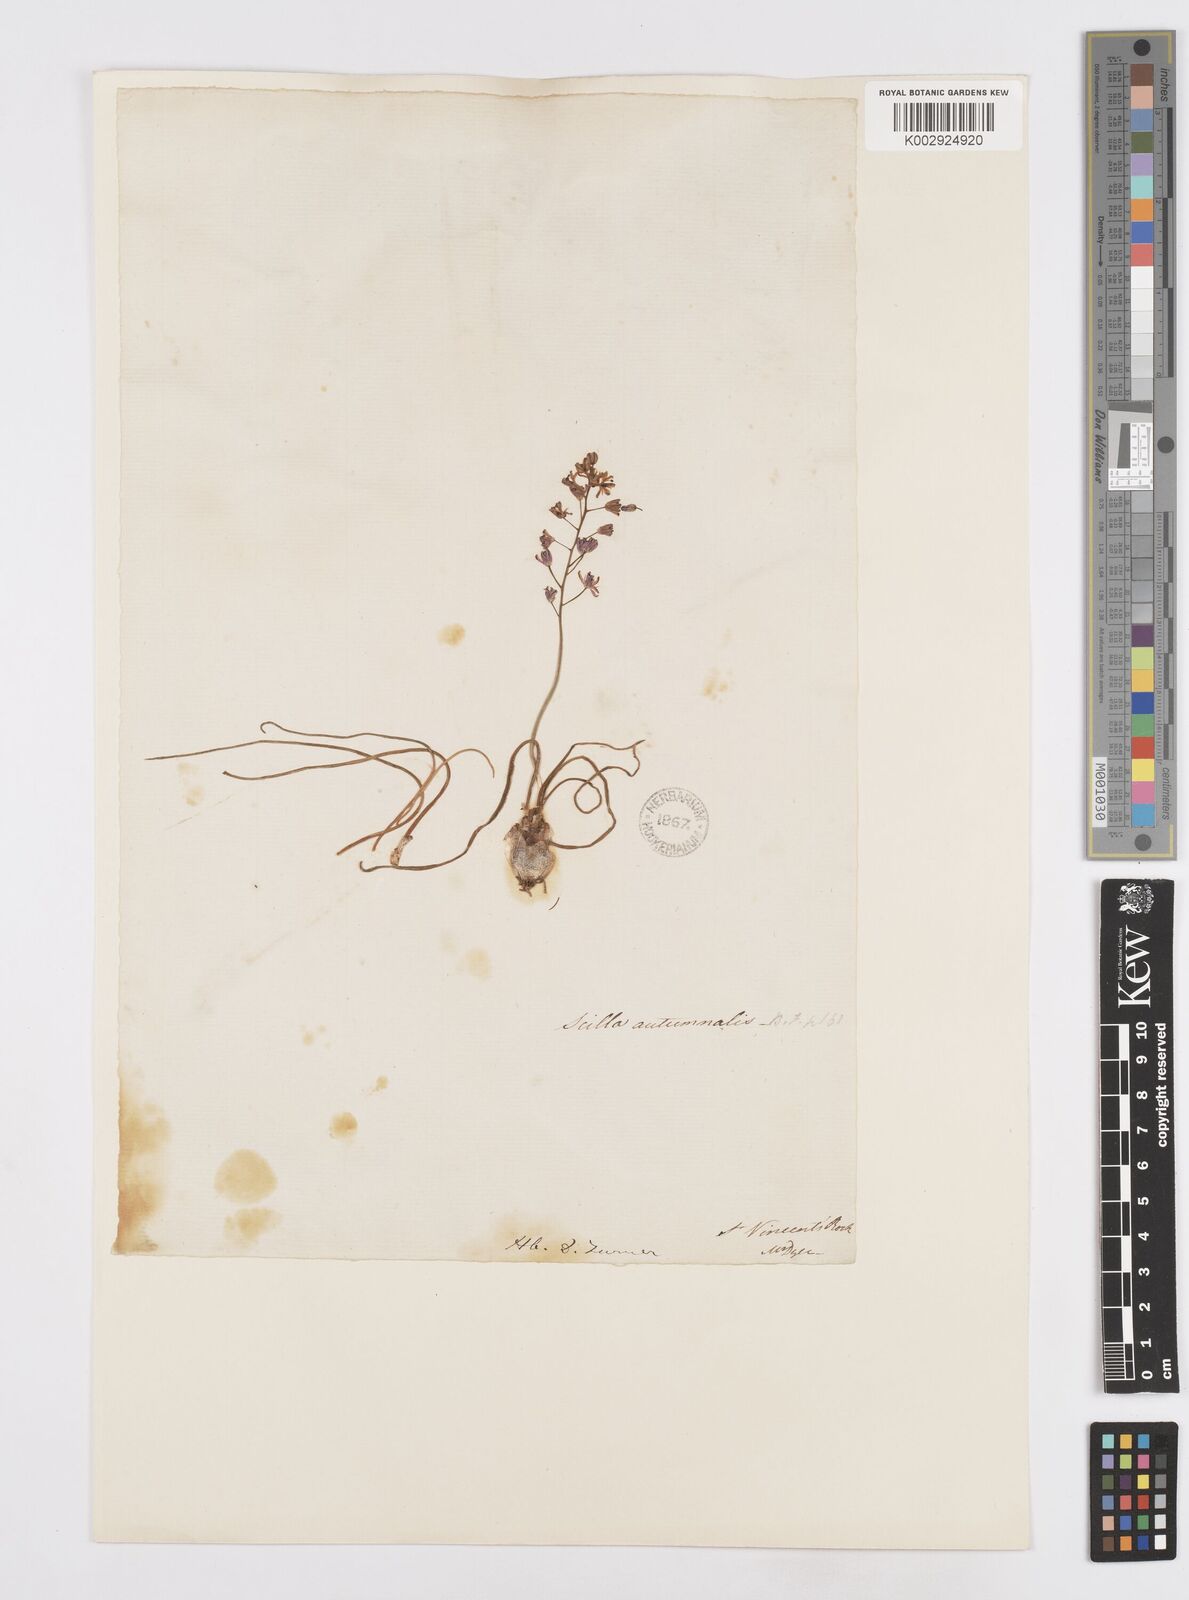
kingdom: Plantae
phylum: Tracheophyta
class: Liliopsida
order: Asparagales
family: Asparagaceae
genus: Scilla
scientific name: Scilla
